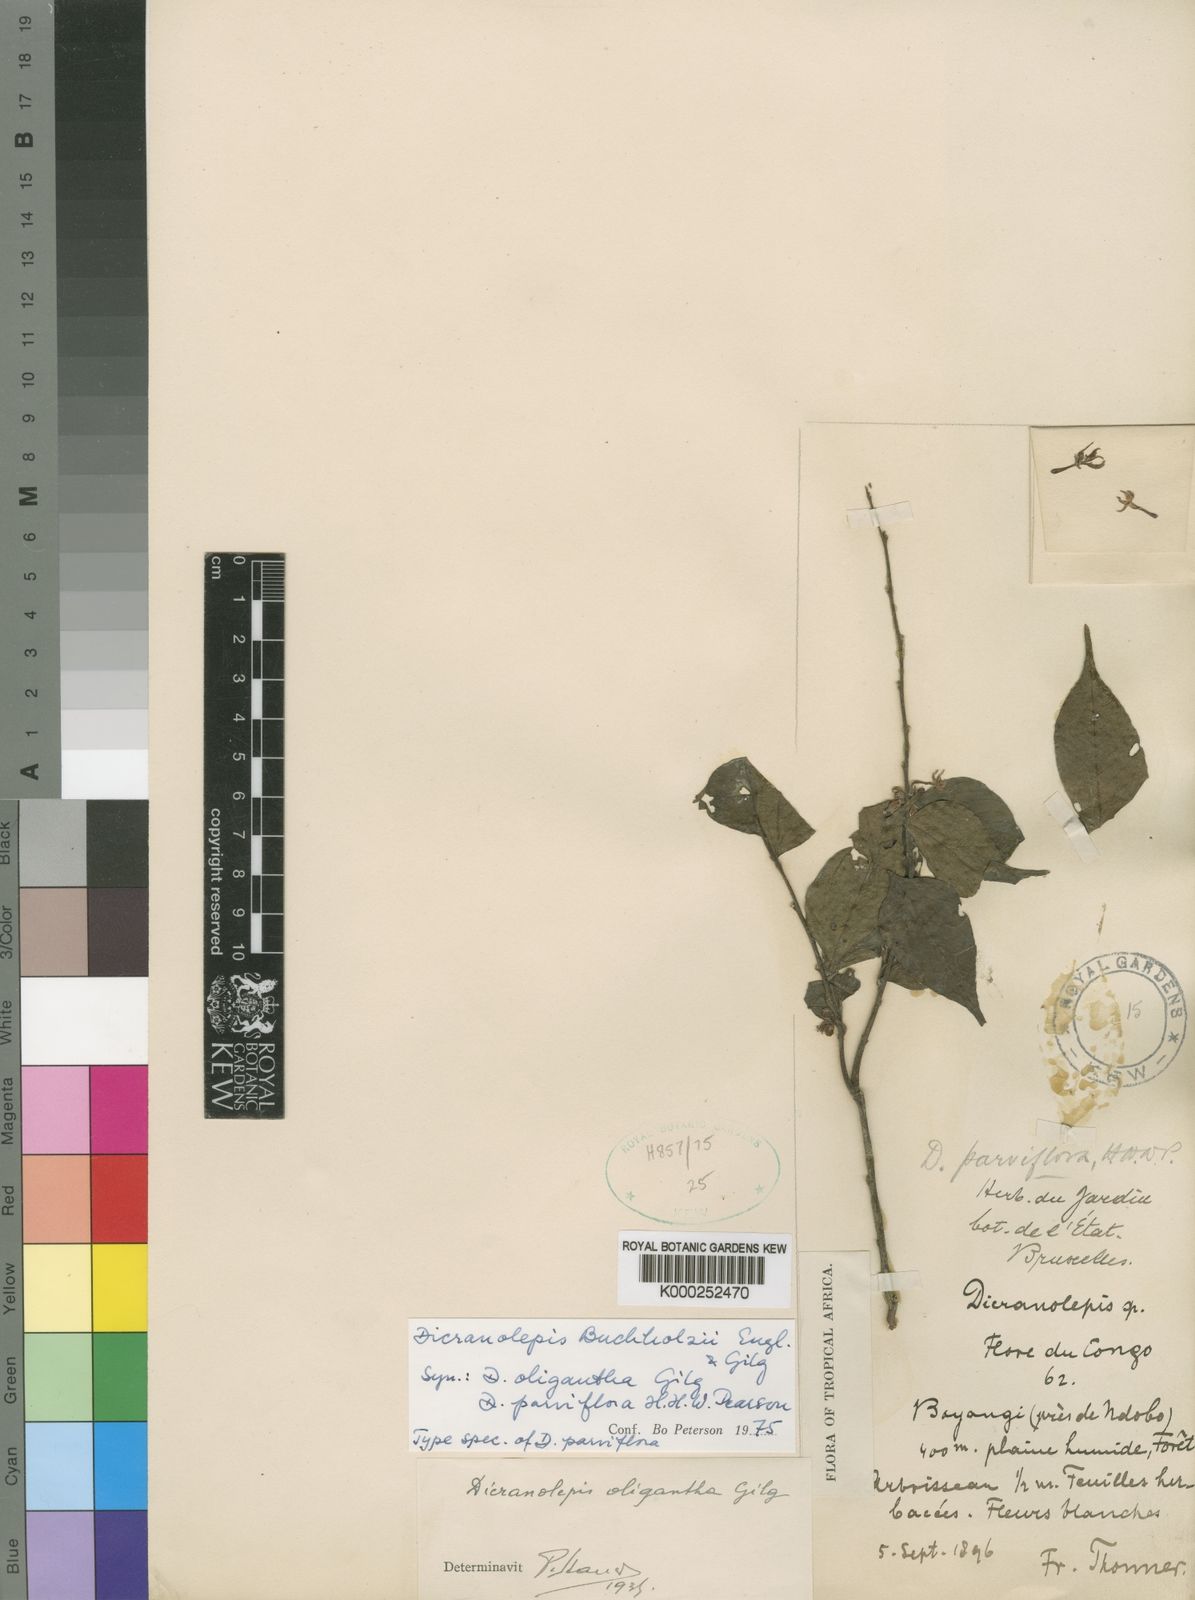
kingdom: Plantae
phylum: Tracheophyta
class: Magnoliopsida
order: Malvales
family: Thymelaeaceae
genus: Dicranolepis
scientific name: Dicranolepis buchholzii
